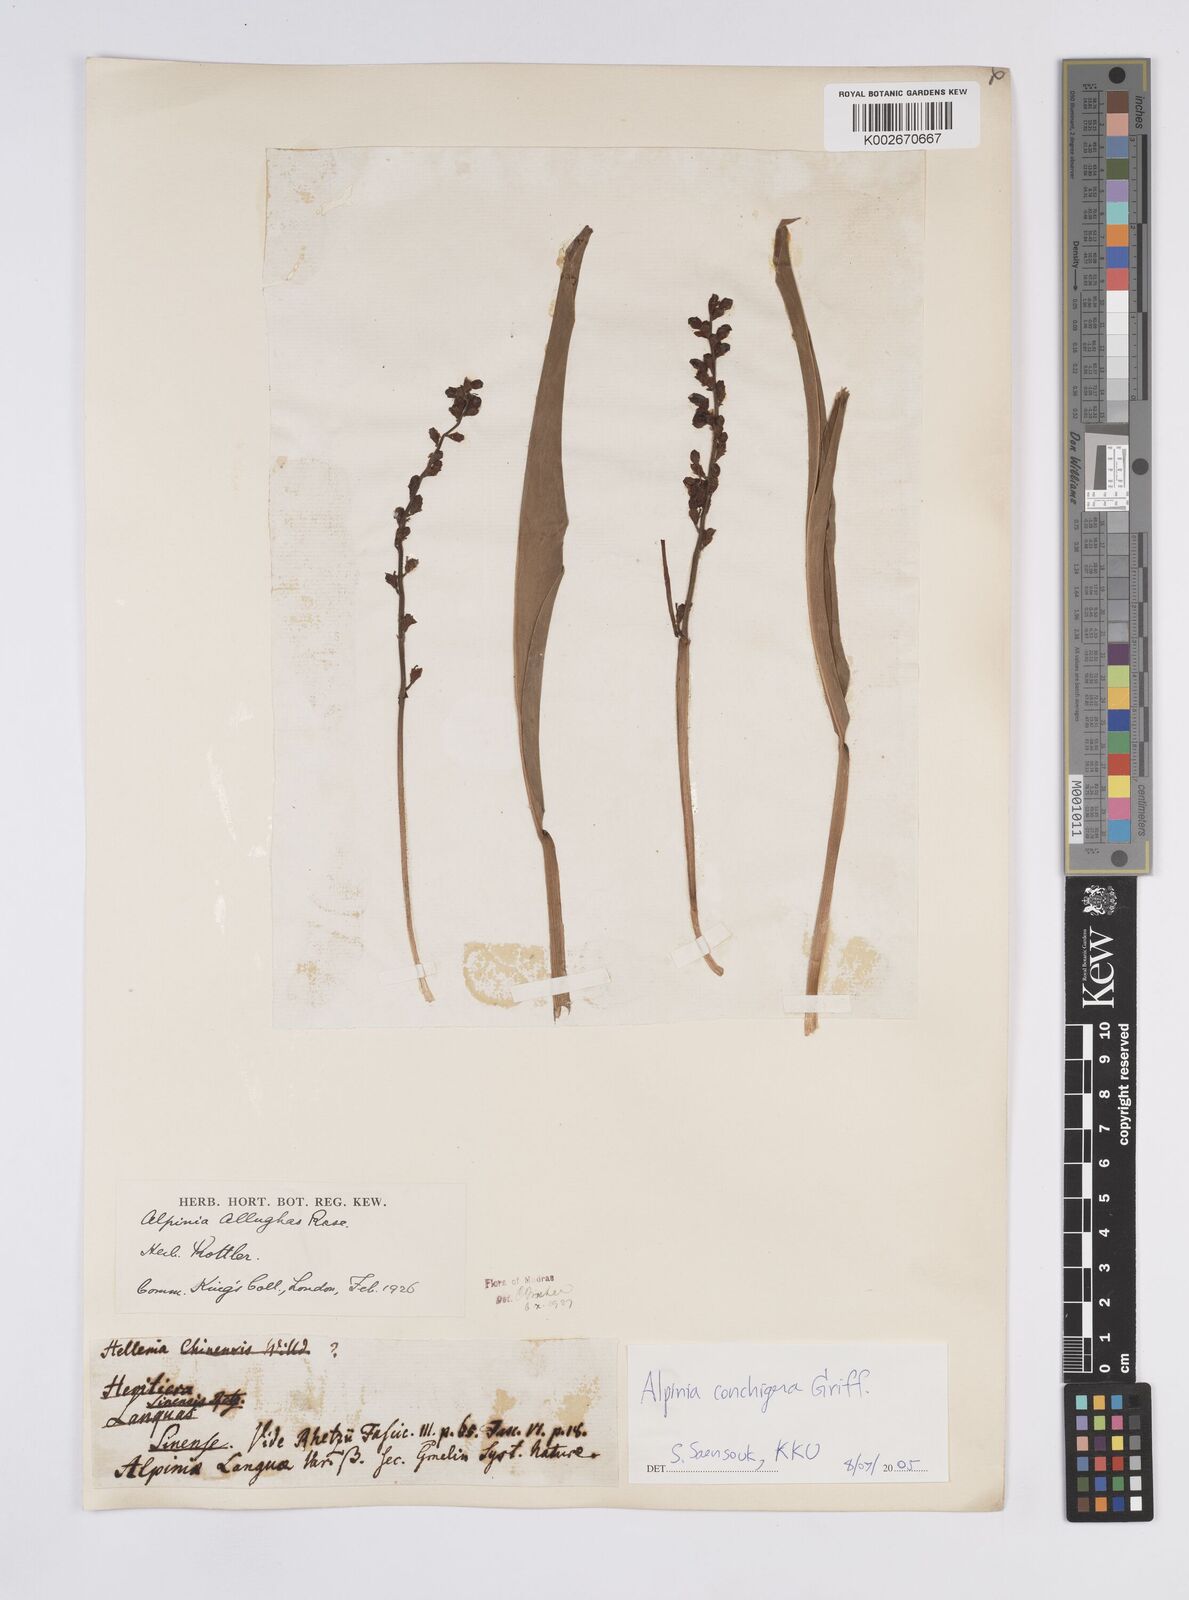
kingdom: Plantae
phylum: Tracheophyta
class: Liliopsida
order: Zingiberales
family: Zingiberaceae
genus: Alpinia
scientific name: Alpinia conchigera
